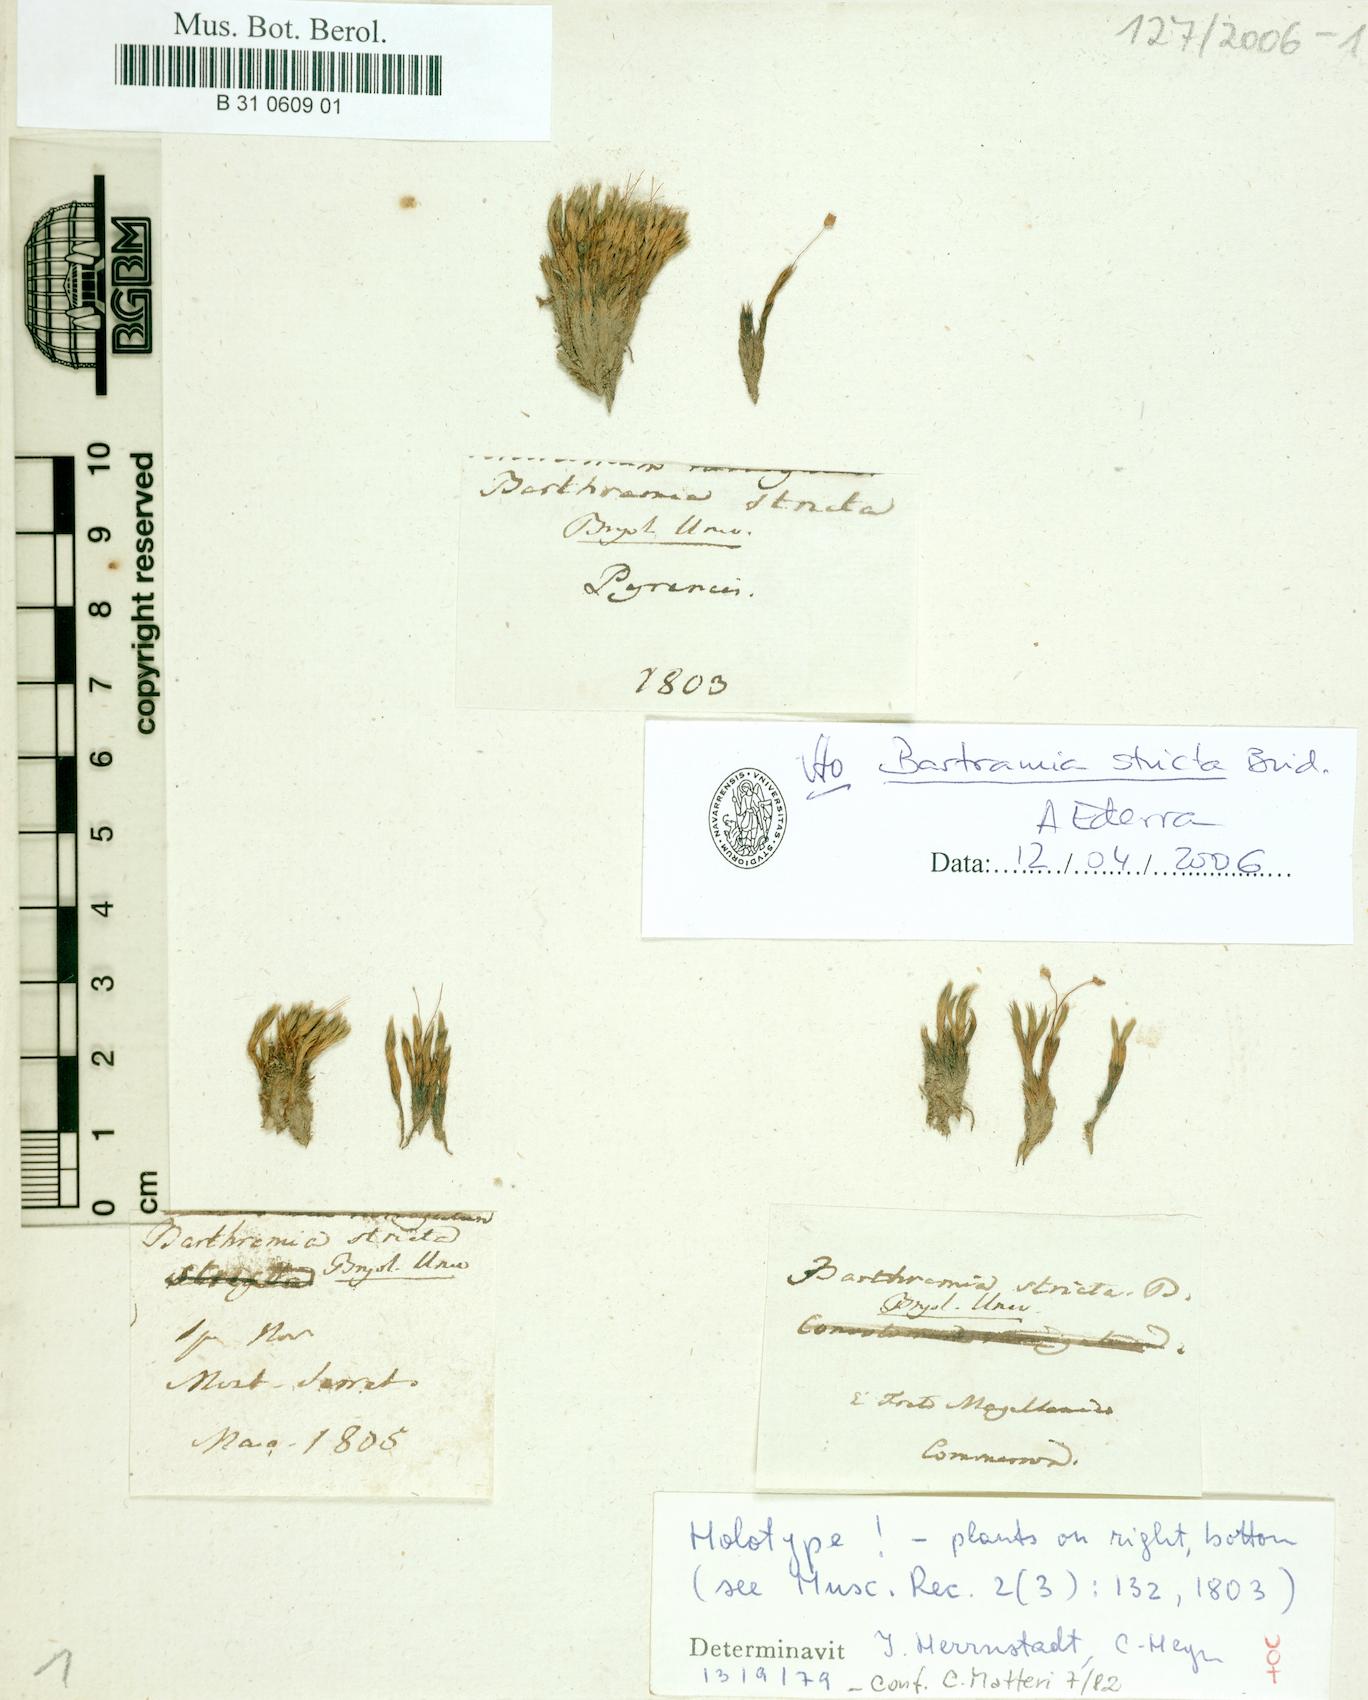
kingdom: Plantae
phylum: Bryophyta
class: Bryopsida
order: Bartramiales
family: Bartramiaceae
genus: Bartramia
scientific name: Bartramia stricta
